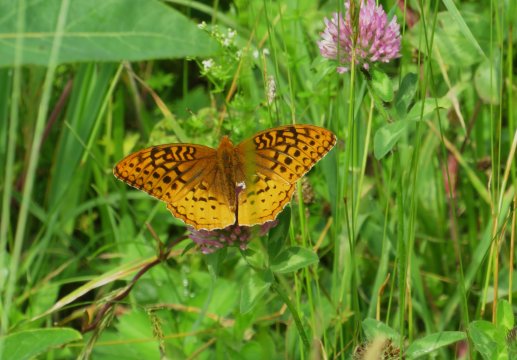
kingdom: Animalia
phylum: Arthropoda
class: Insecta
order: Lepidoptera
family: Nymphalidae
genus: Speyeria
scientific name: Speyeria cybele
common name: Great Spangled Fritillary
